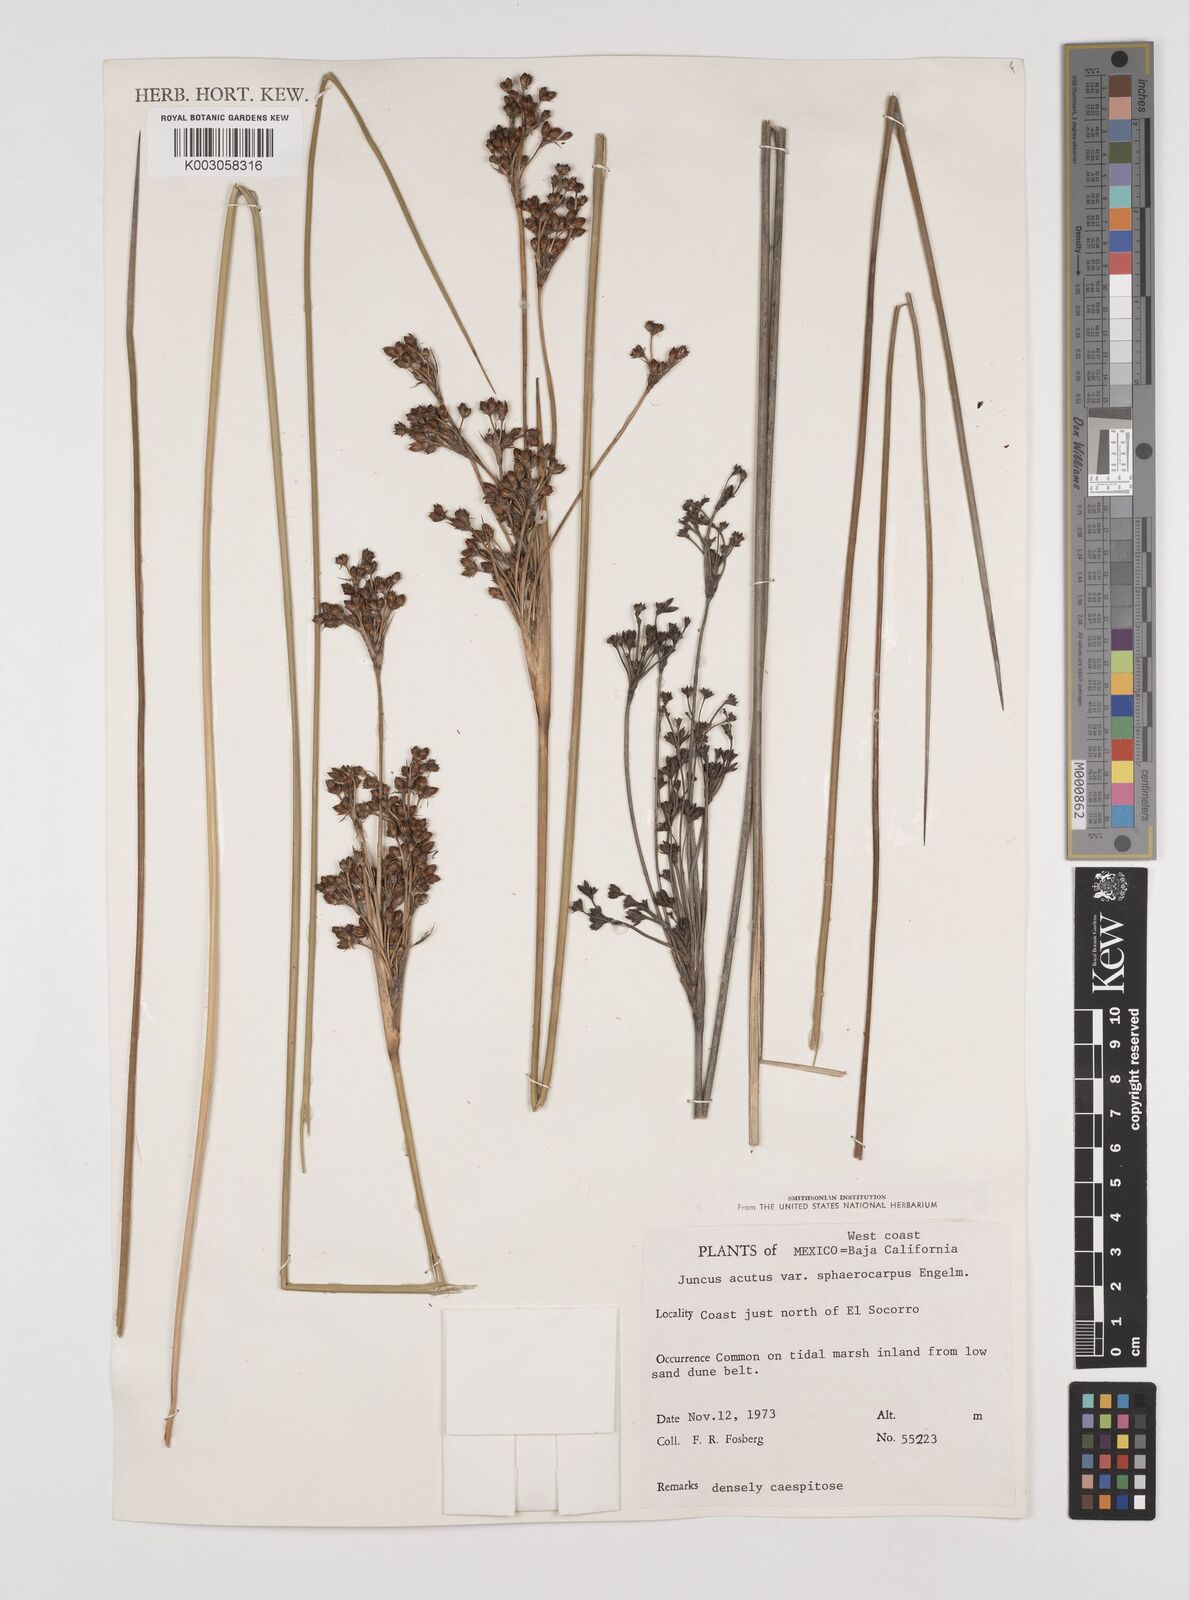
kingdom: Plantae
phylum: Tracheophyta
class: Liliopsida
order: Poales
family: Juncaceae
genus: Juncus
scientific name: Juncus acutus
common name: Sharp rush
